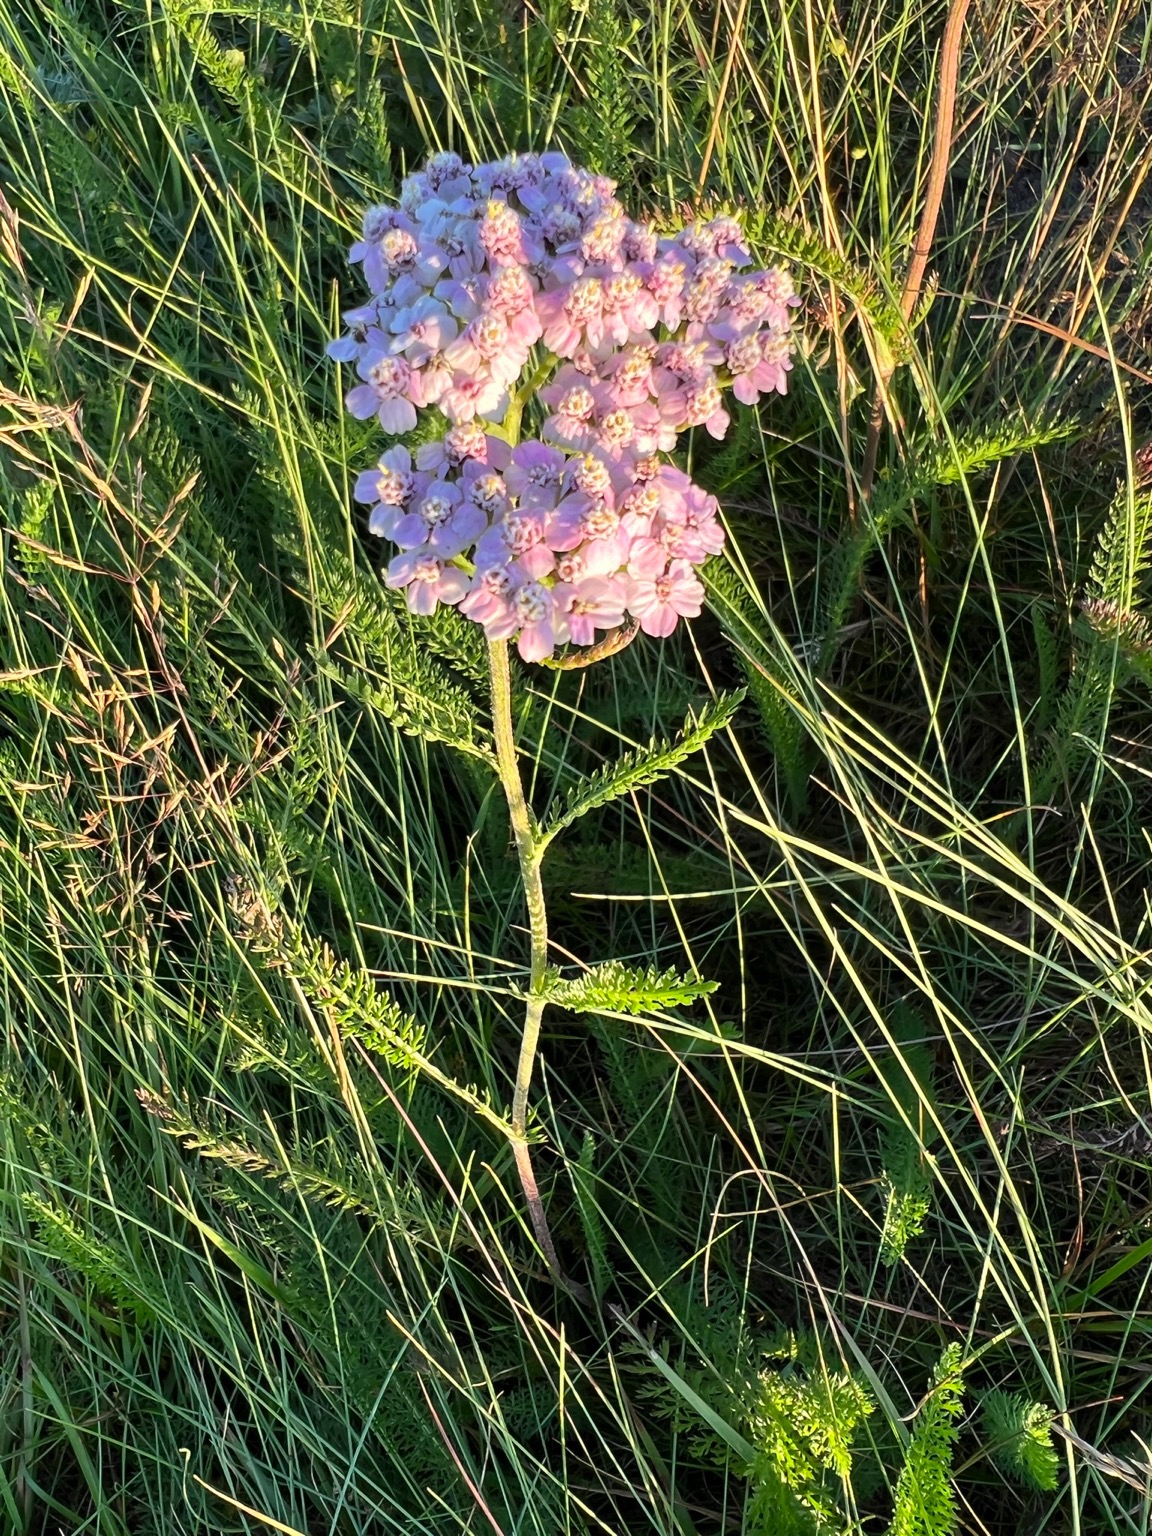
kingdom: Plantae
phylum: Tracheophyta
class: Magnoliopsida
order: Asterales
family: Asteraceae
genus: Achillea
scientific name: Achillea millefolium
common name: Almindelig røllike
